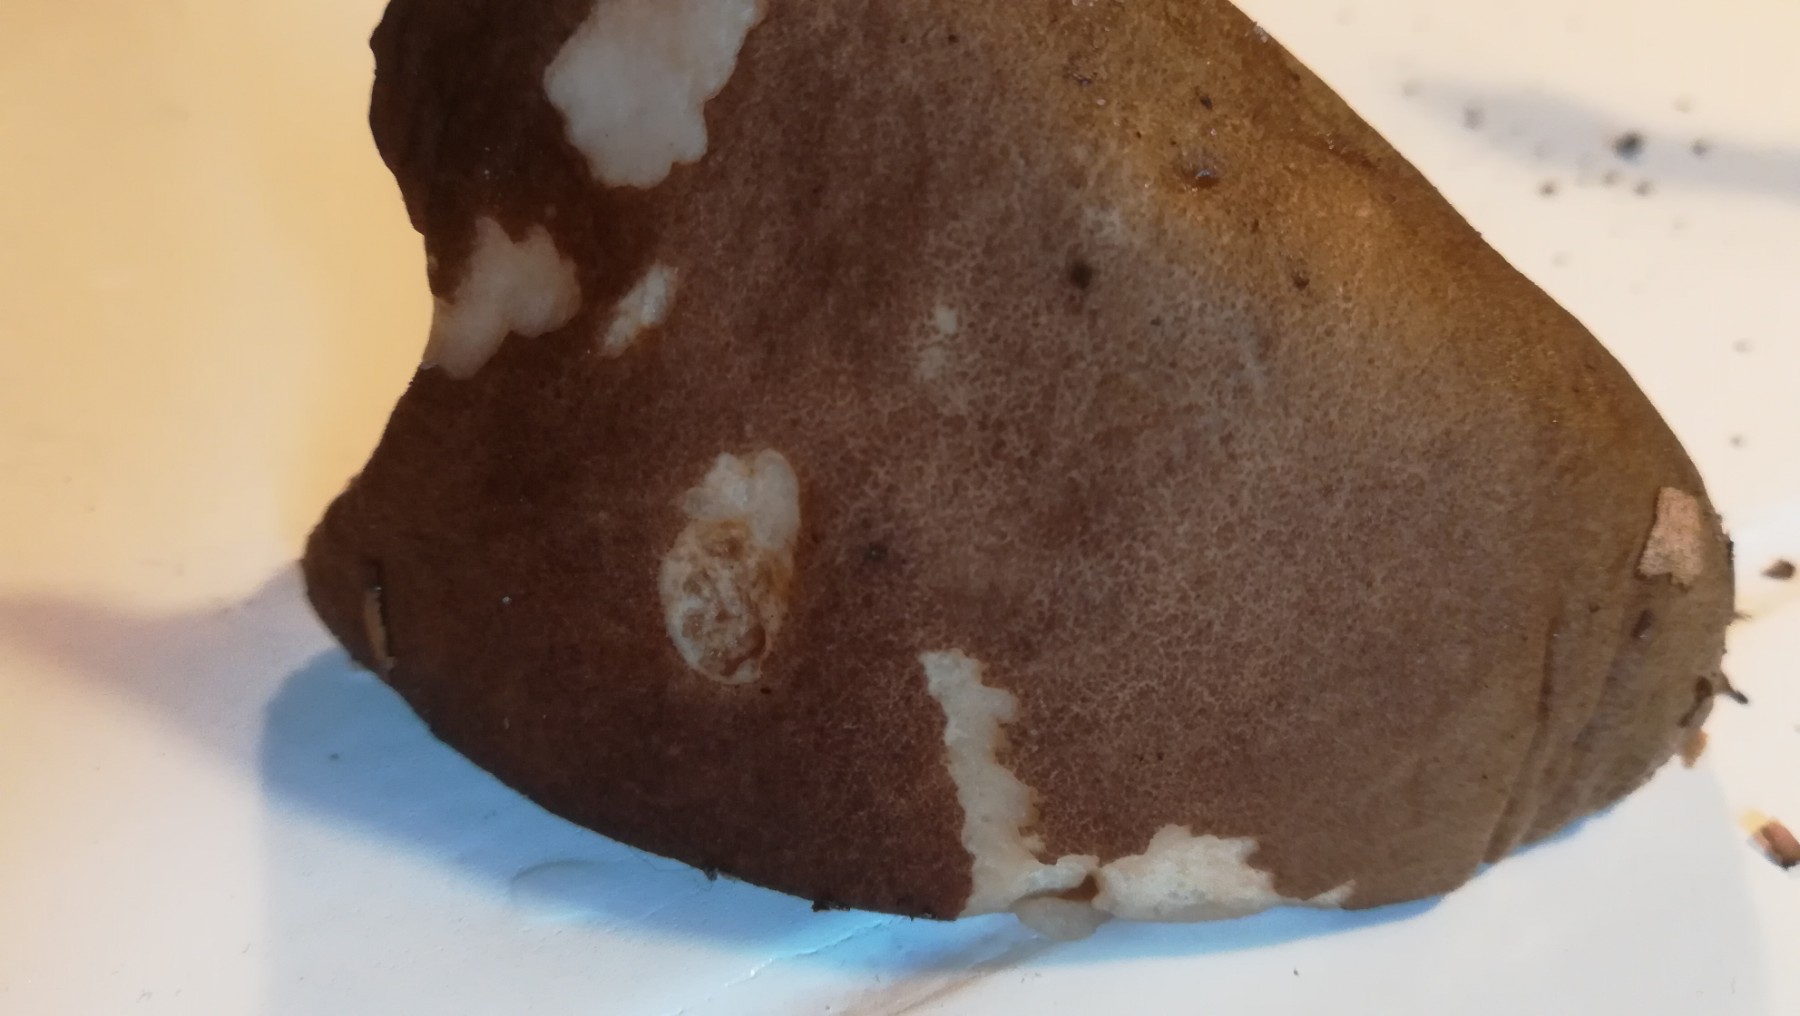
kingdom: Fungi
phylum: Basidiomycota
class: Agaricomycetes
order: Boletales
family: Boletaceae
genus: Leccinum
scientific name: Leccinum scabrum
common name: brun skælrørhat
